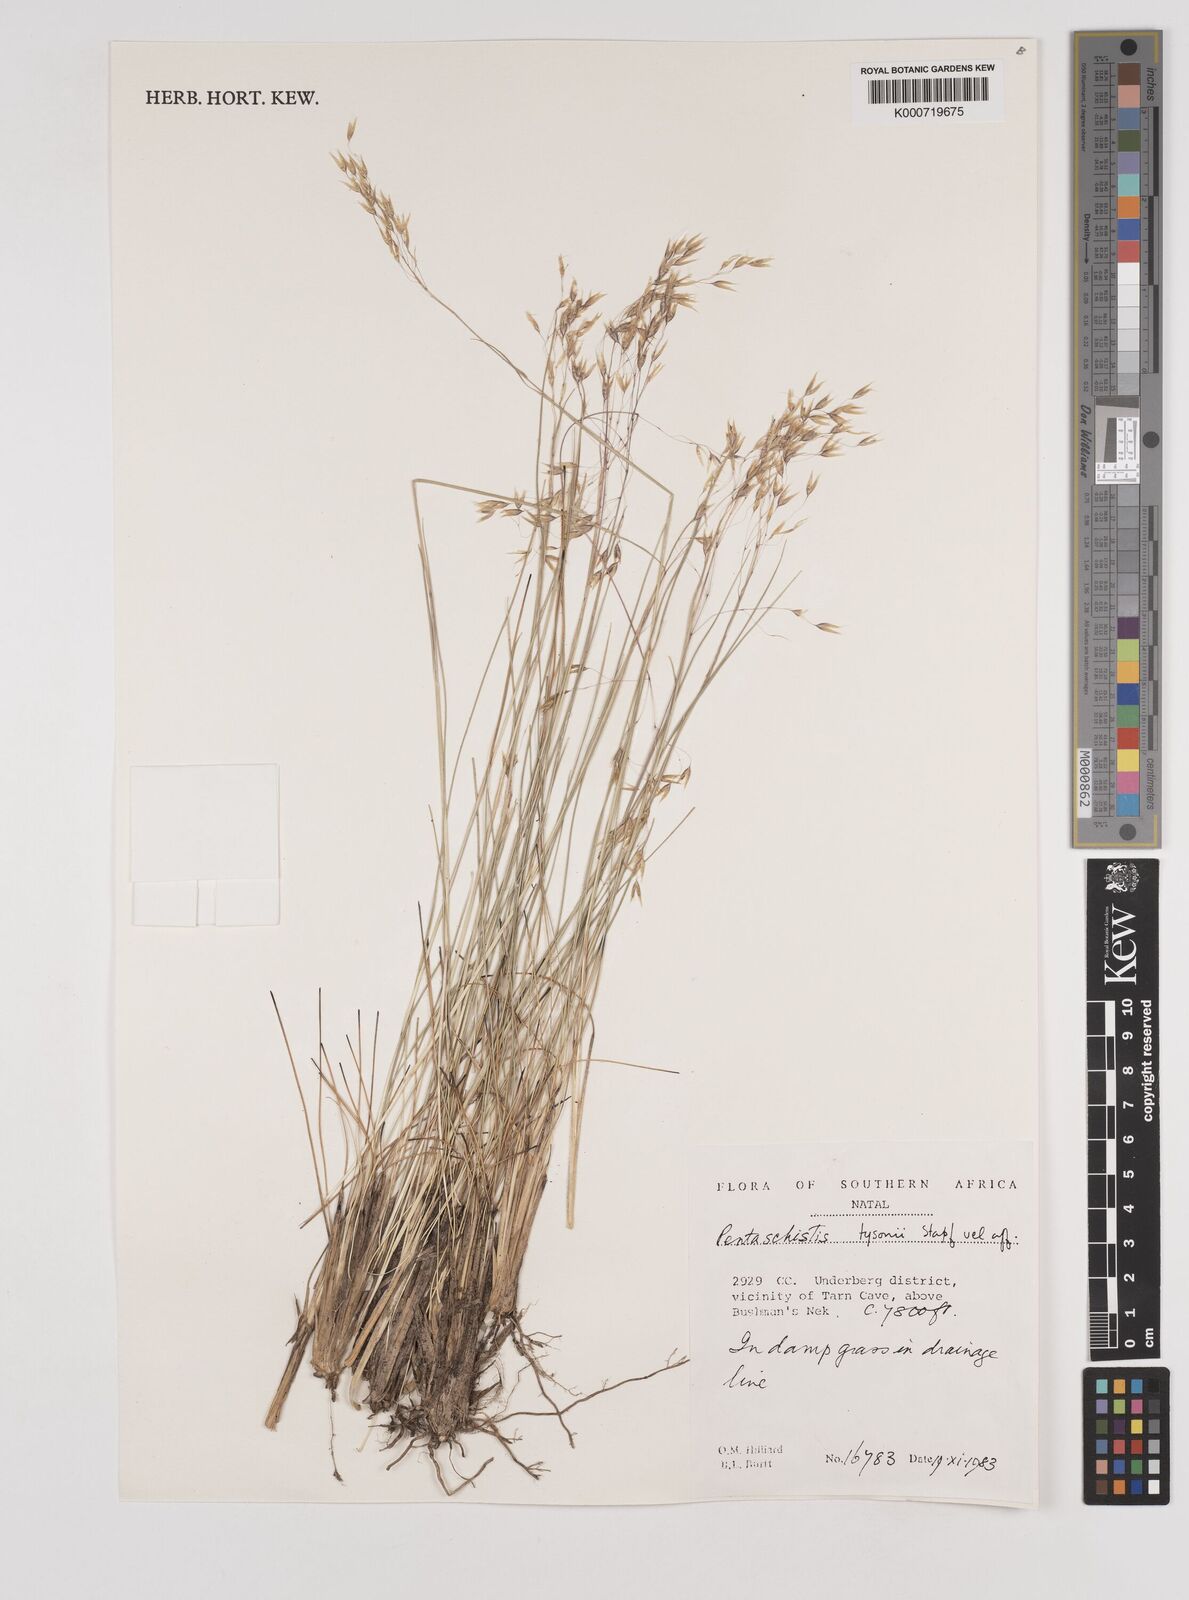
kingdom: Plantae
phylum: Tracheophyta
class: Liliopsida
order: Poales
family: Poaceae
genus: Pentameris
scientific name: Pentameris tysonii
